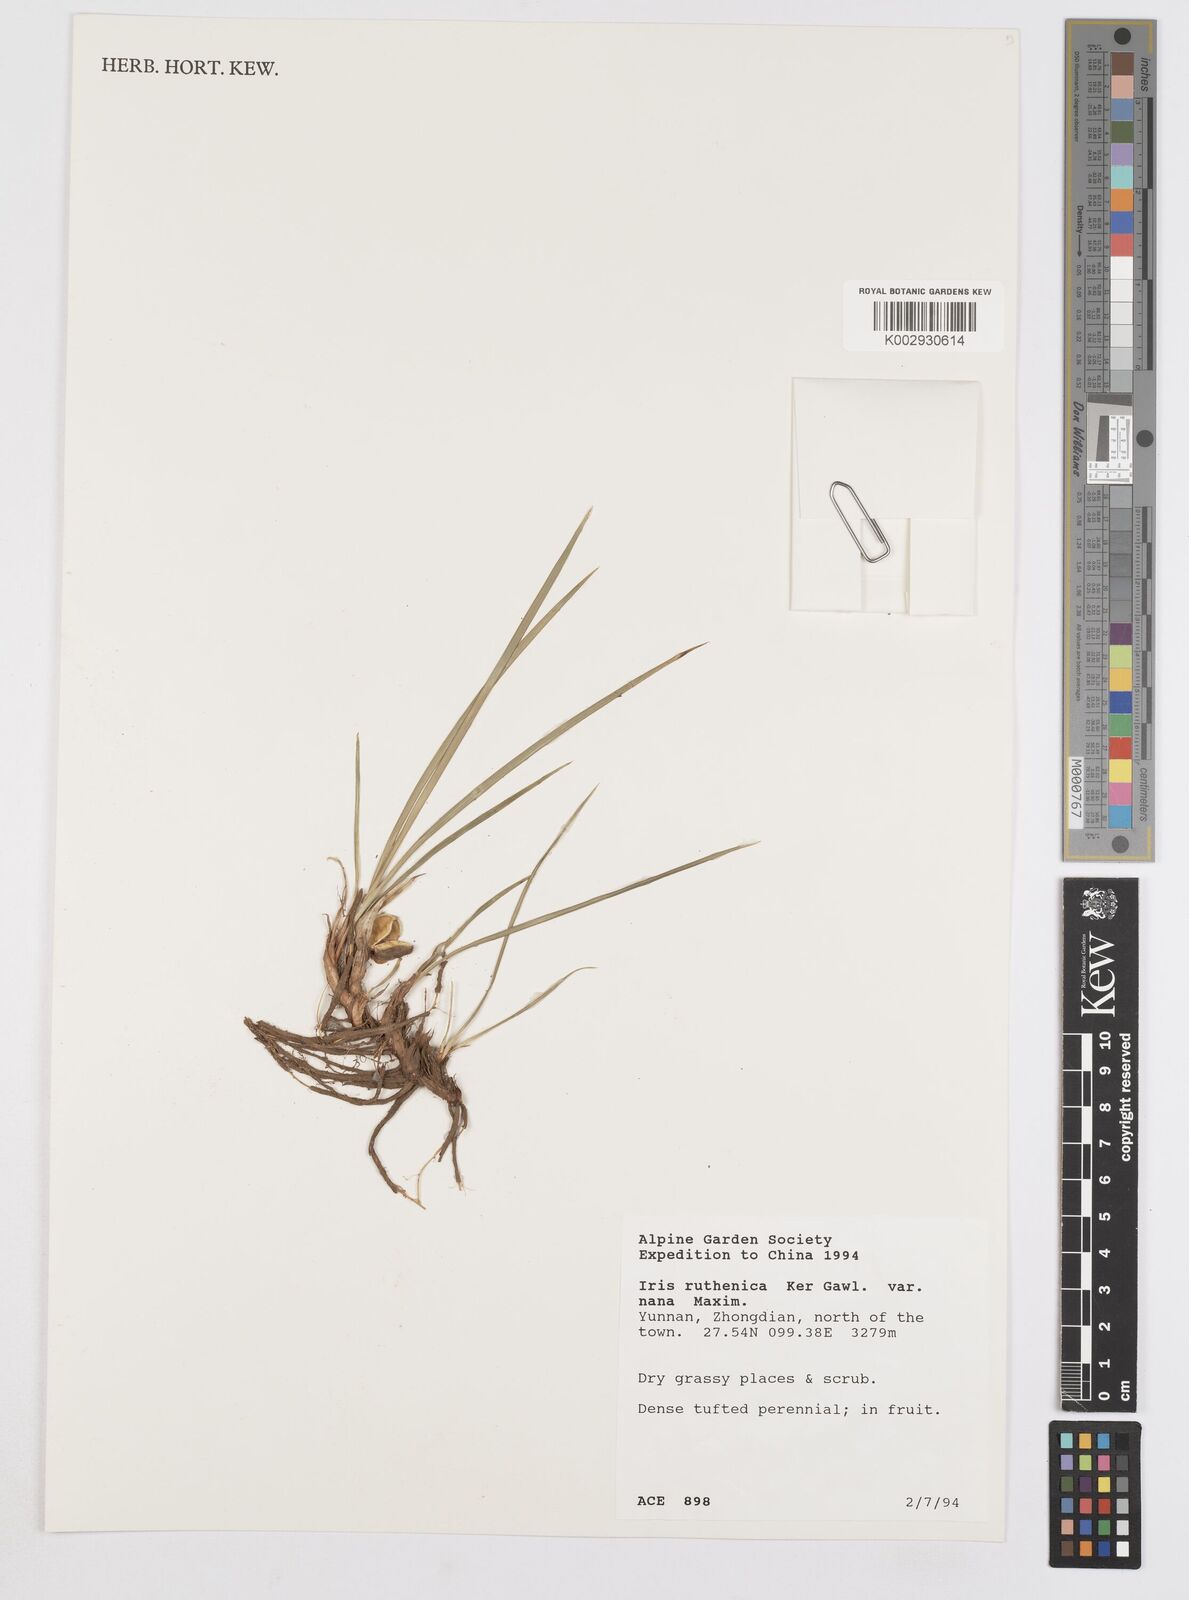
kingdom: Plantae
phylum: Tracheophyta
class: Liliopsida
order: Asparagales
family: Iridaceae
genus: Iris
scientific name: Iris ruthenica
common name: Purple-bract iris
